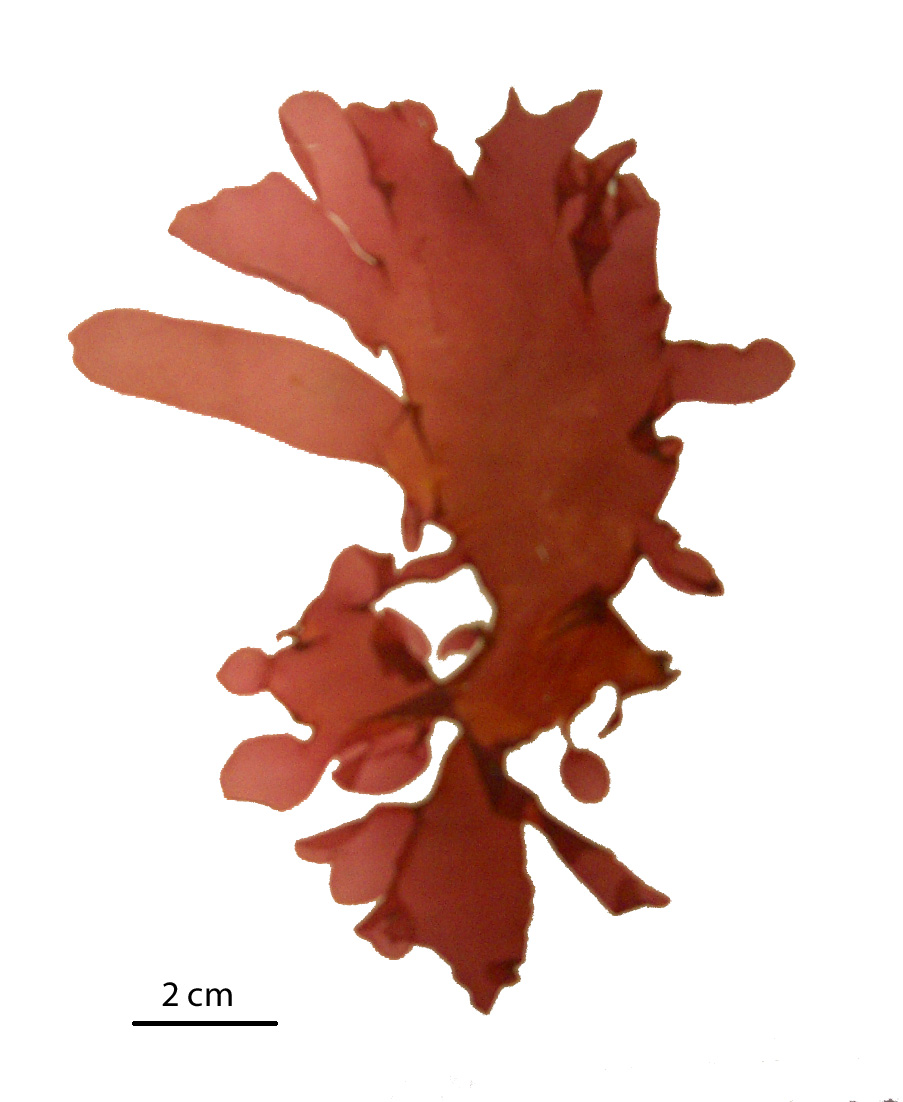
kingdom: Plantae
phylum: Rhodophyta
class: Florideophyceae
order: Gigartinales
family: Kallymeniaceae
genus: Psaromenia
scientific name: Psaromenia berggrenii
